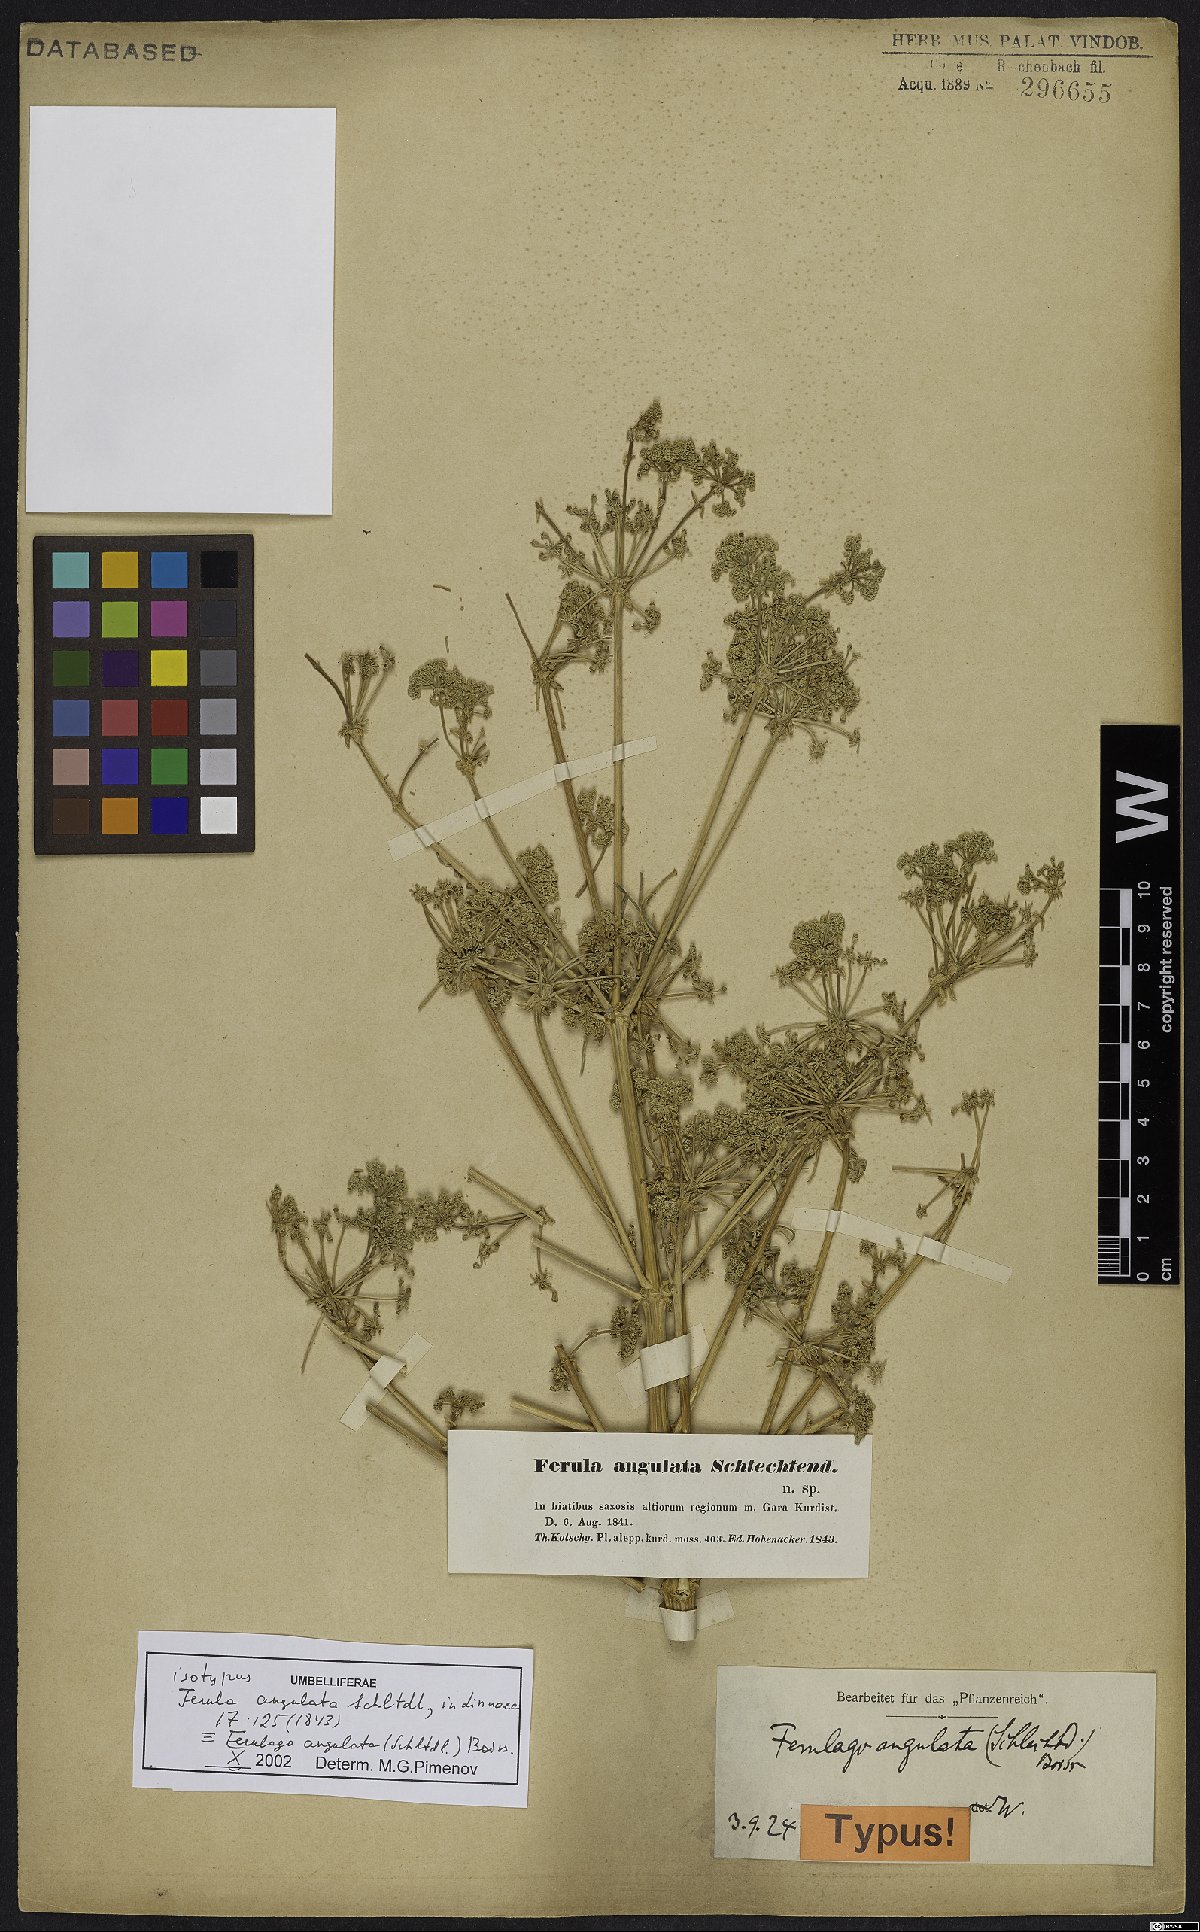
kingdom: Plantae
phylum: Tracheophyta
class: Magnoliopsida
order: Apiales
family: Apiaceae
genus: Ferulago
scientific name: Ferulago angulata
